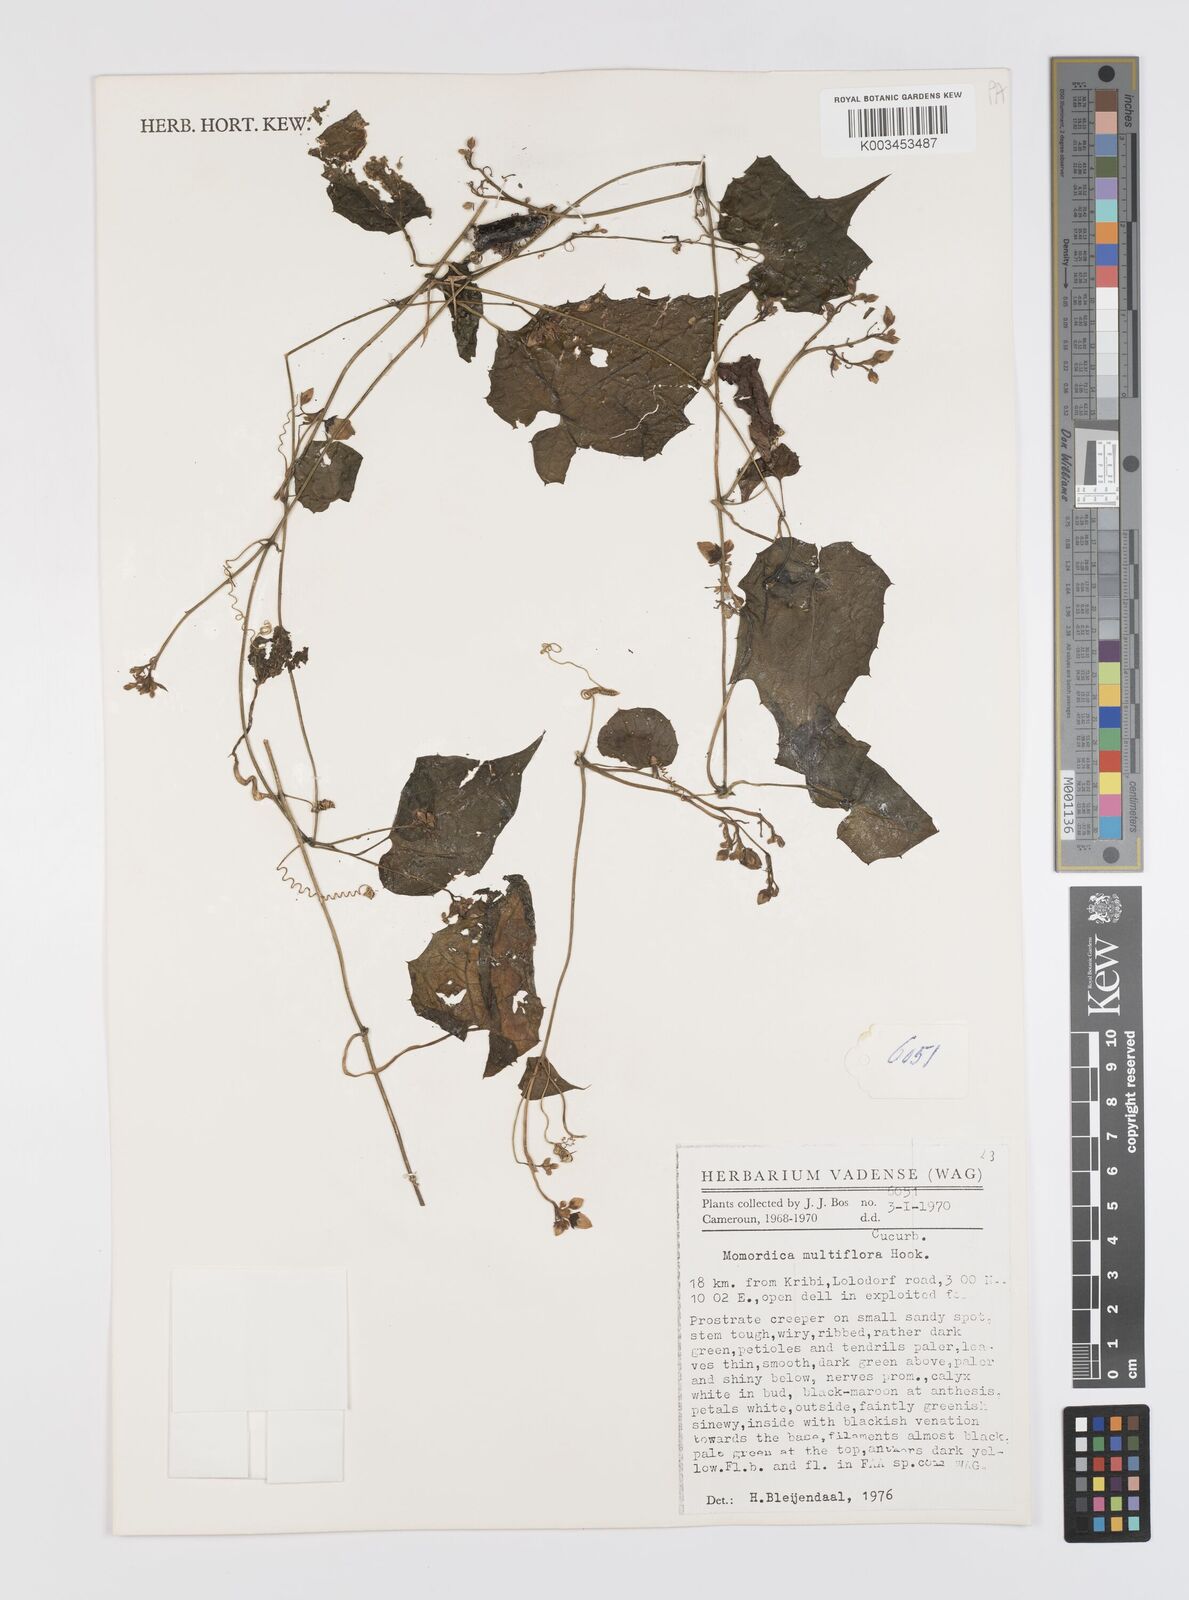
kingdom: Plantae
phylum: Tracheophyta
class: Magnoliopsida
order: Cucurbitales
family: Cucurbitaceae
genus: Momordica
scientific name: Momordica multiflora
